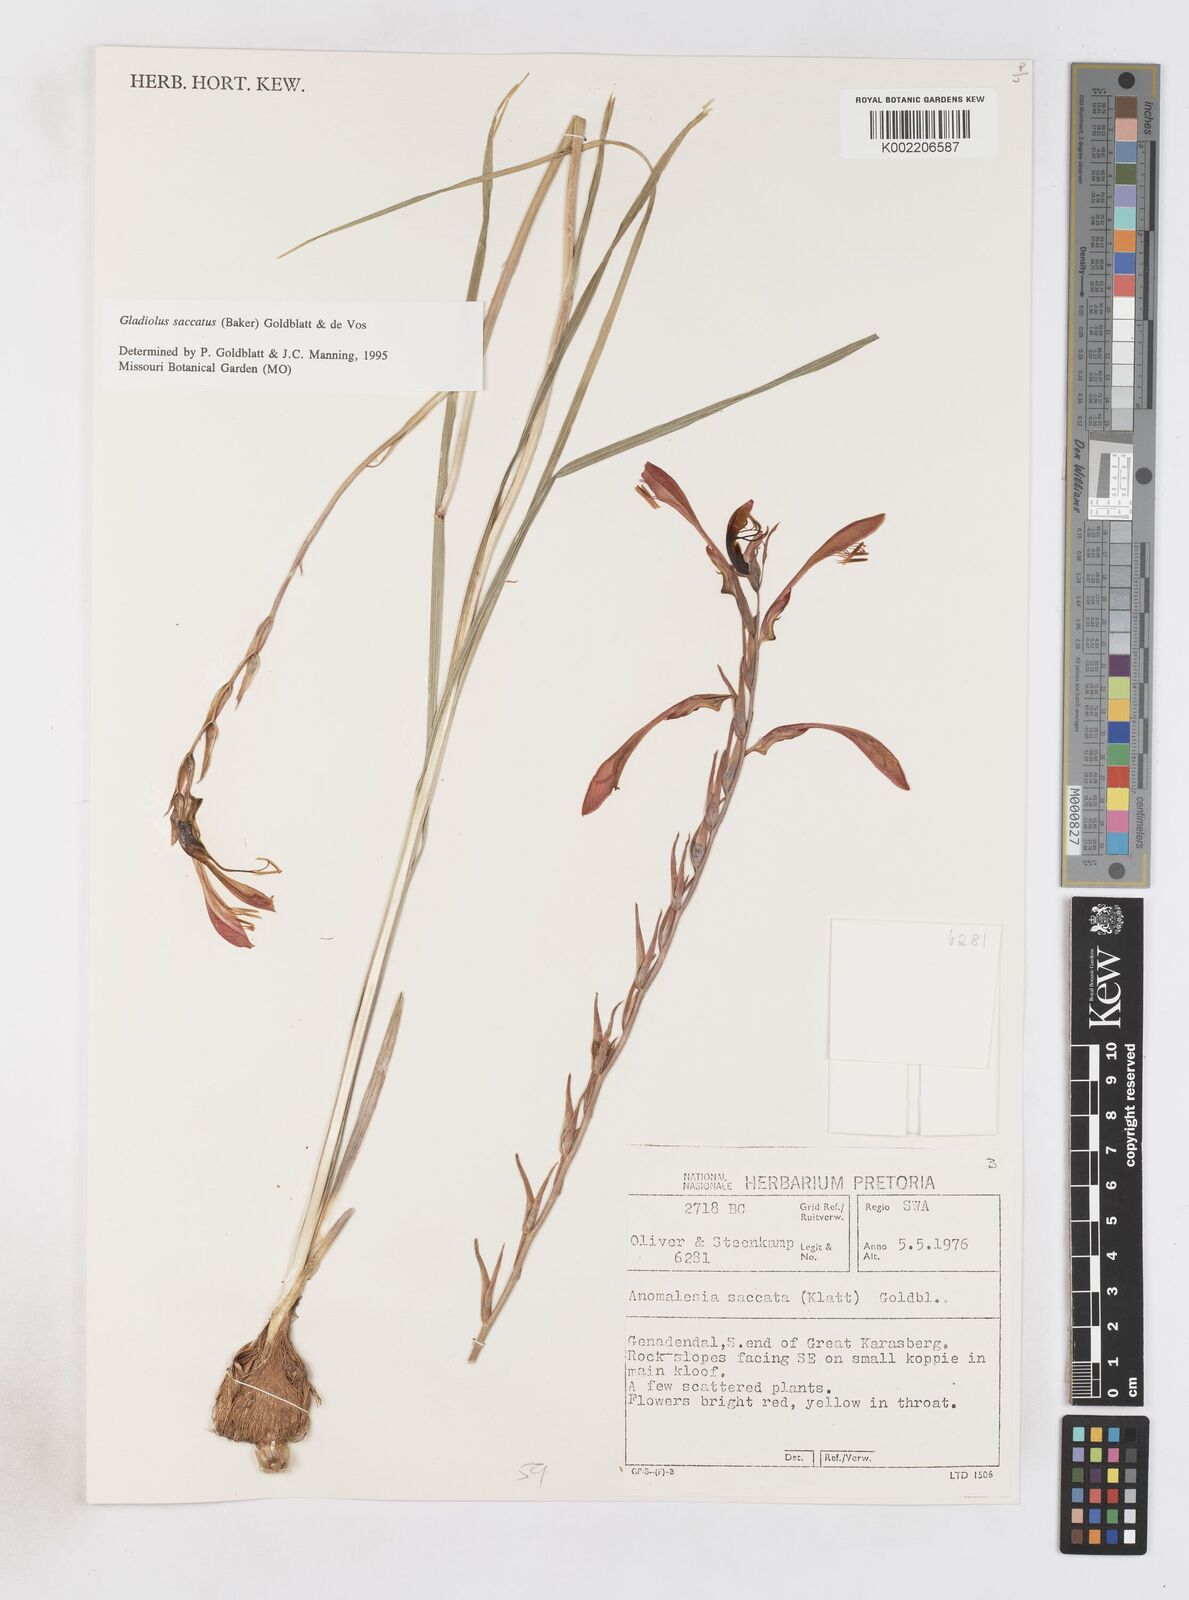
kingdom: Plantae
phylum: Tracheophyta
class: Liliopsida
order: Asparagales
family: Iridaceae
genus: Gladiolus
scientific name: Gladiolus saccatus
